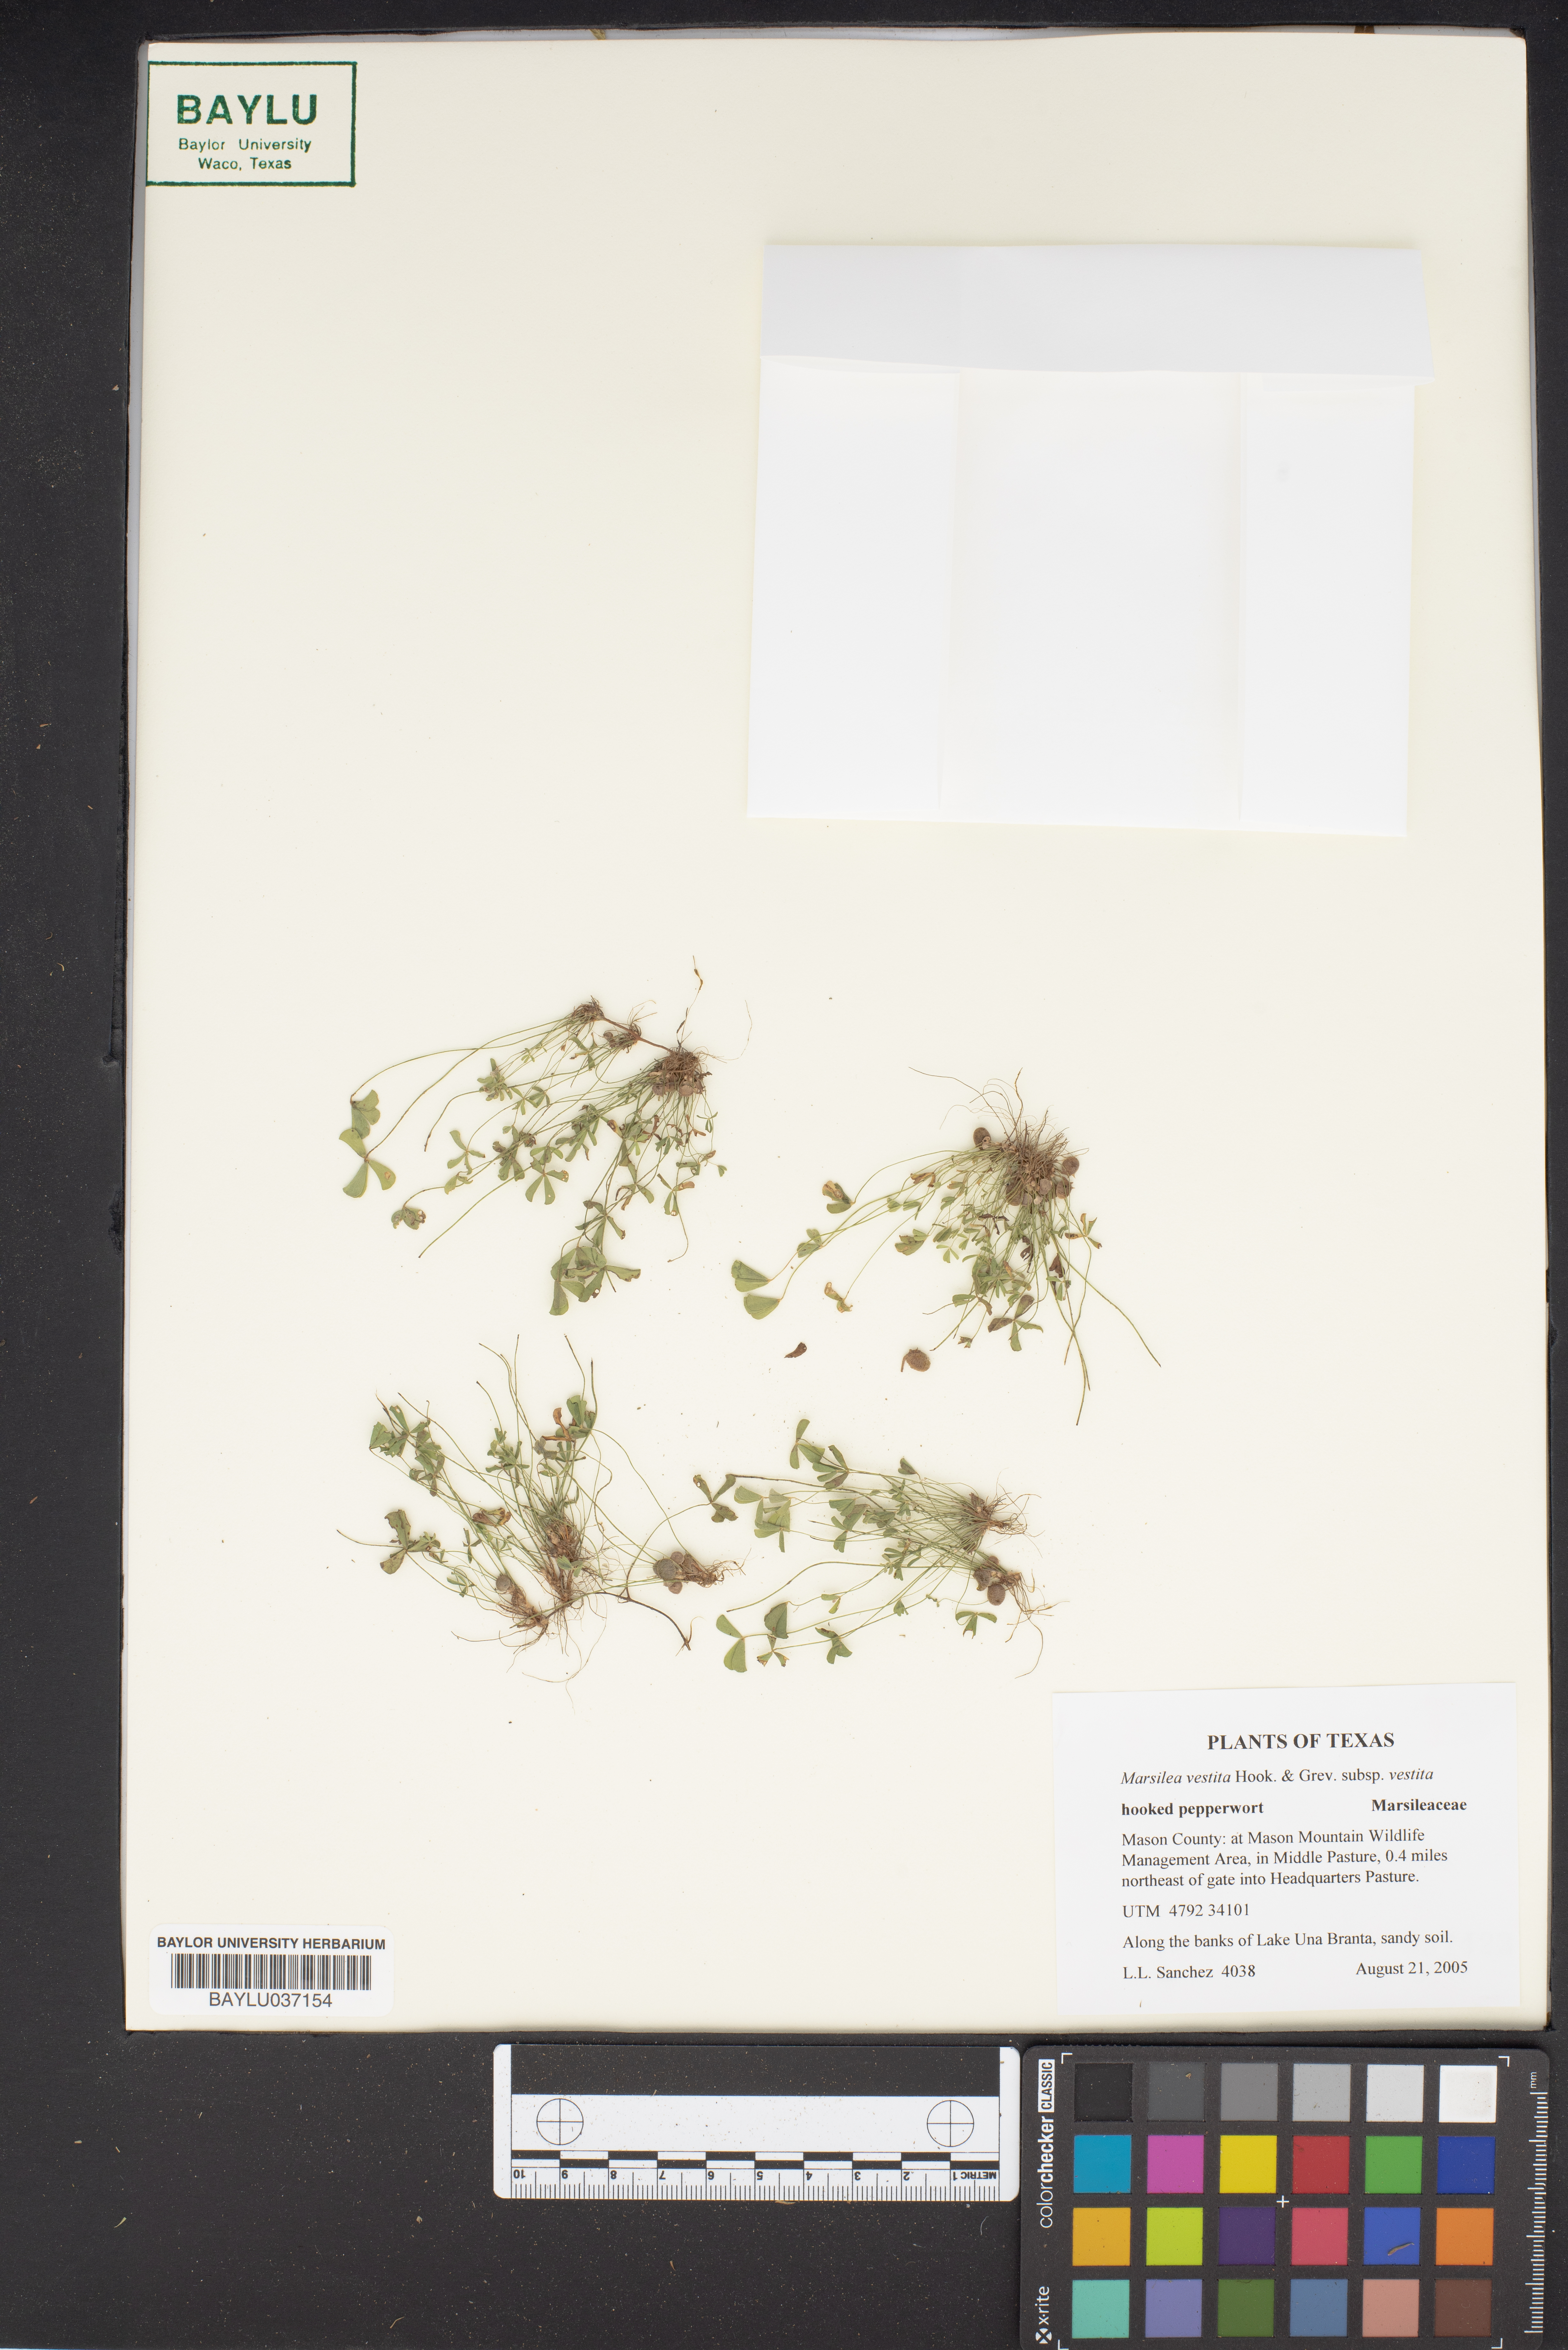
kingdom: Plantae
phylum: Tracheophyta
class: Polypodiopsida
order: Salviniales
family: Marsileaceae
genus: Marsilea
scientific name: Marsilea vestita
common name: Hooked-pepperwort
